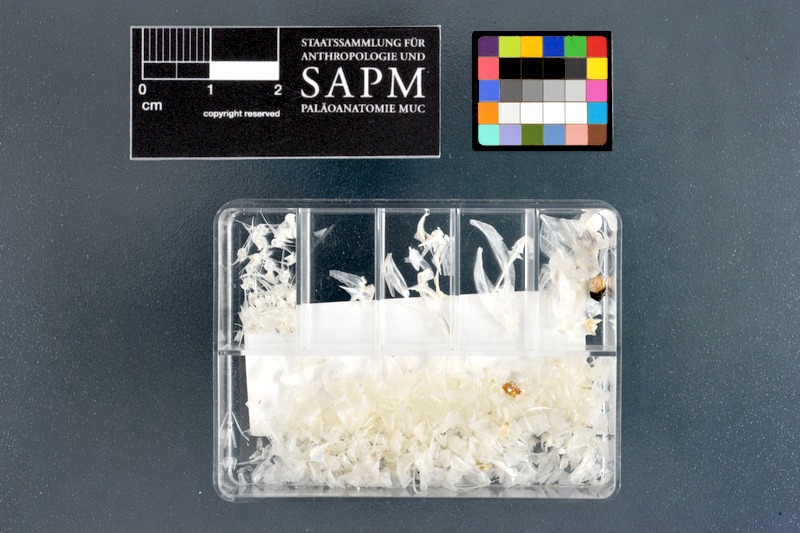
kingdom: Animalia
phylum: Chordata
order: Atheriniformes
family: Atherinidae
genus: Atherinomorus
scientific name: Atherinomorus lacunosus
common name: Hardyhead silverside
